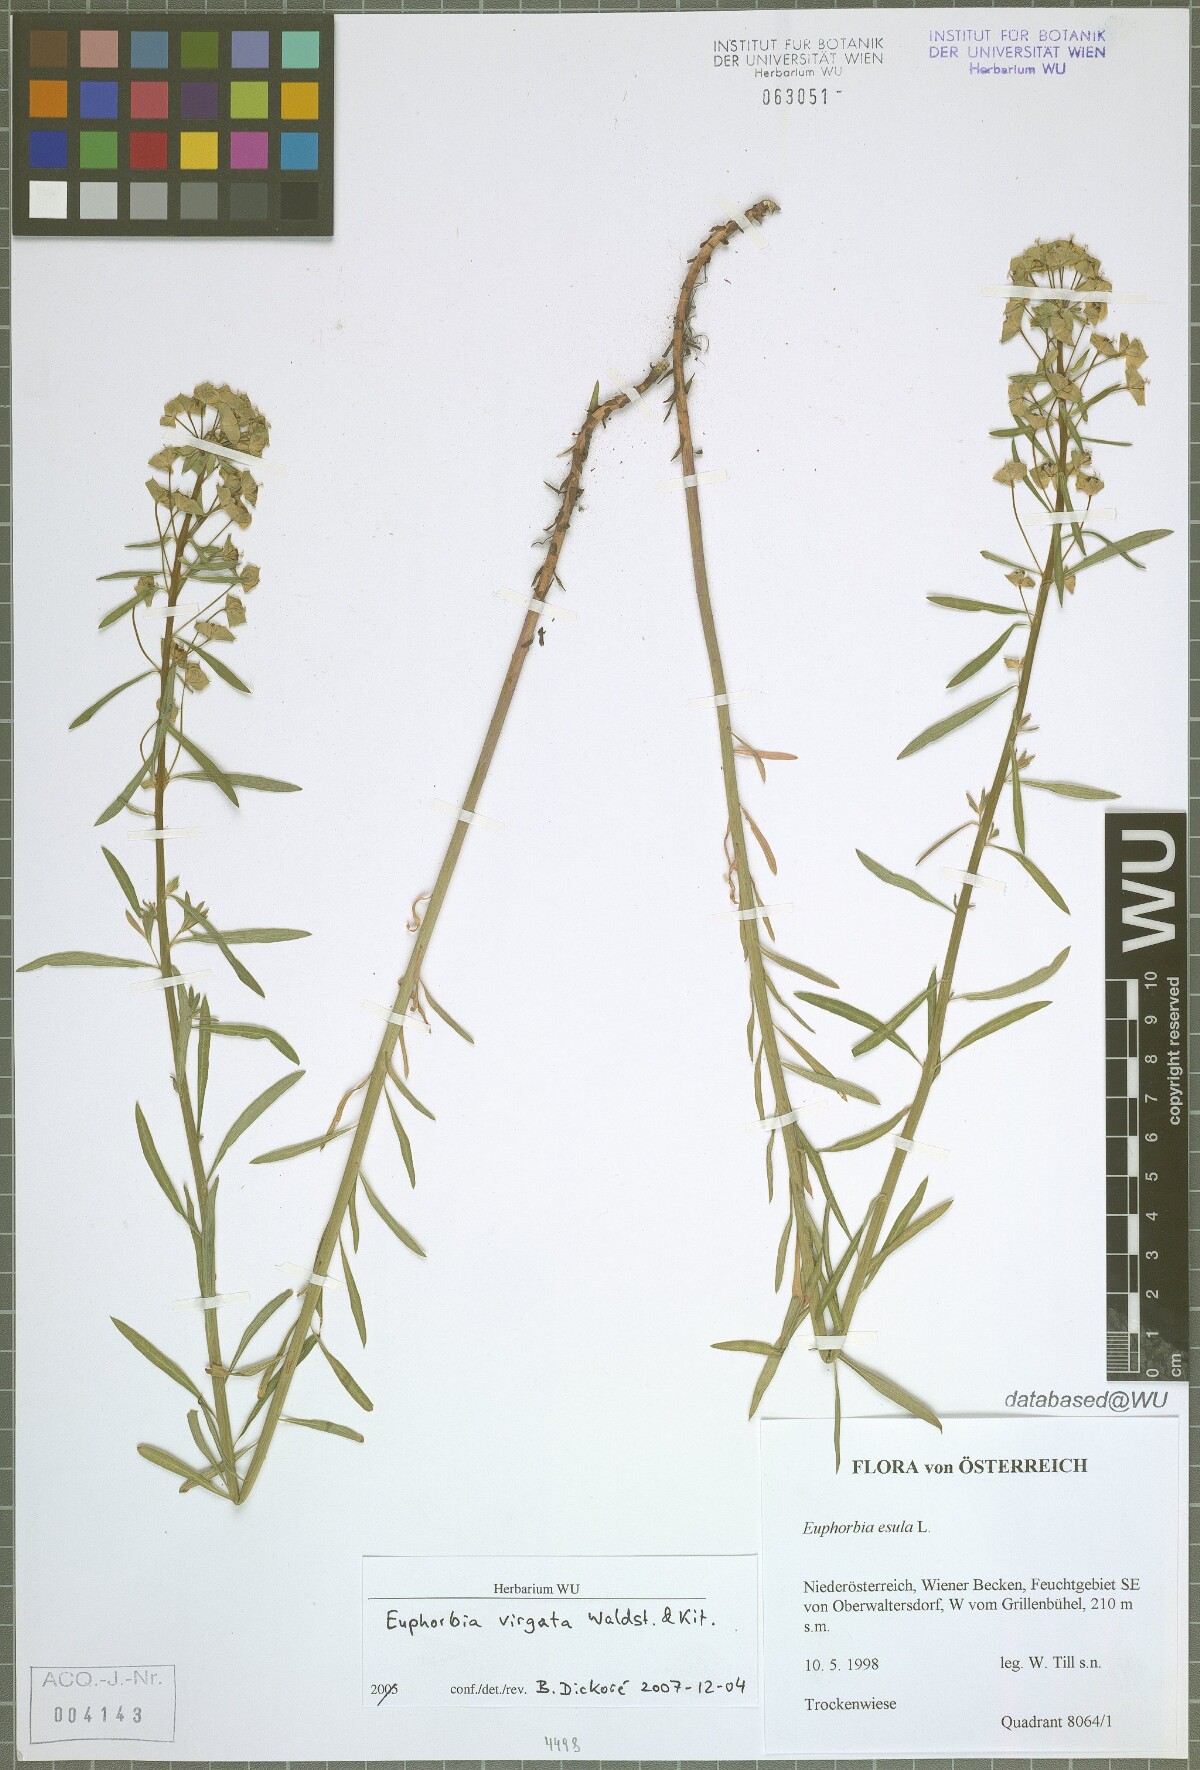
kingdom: Plantae
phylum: Tracheophyta
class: Magnoliopsida
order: Malpighiales
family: Euphorbiaceae
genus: Euphorbia
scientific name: Euphorbia esula
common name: Leafy spurge
